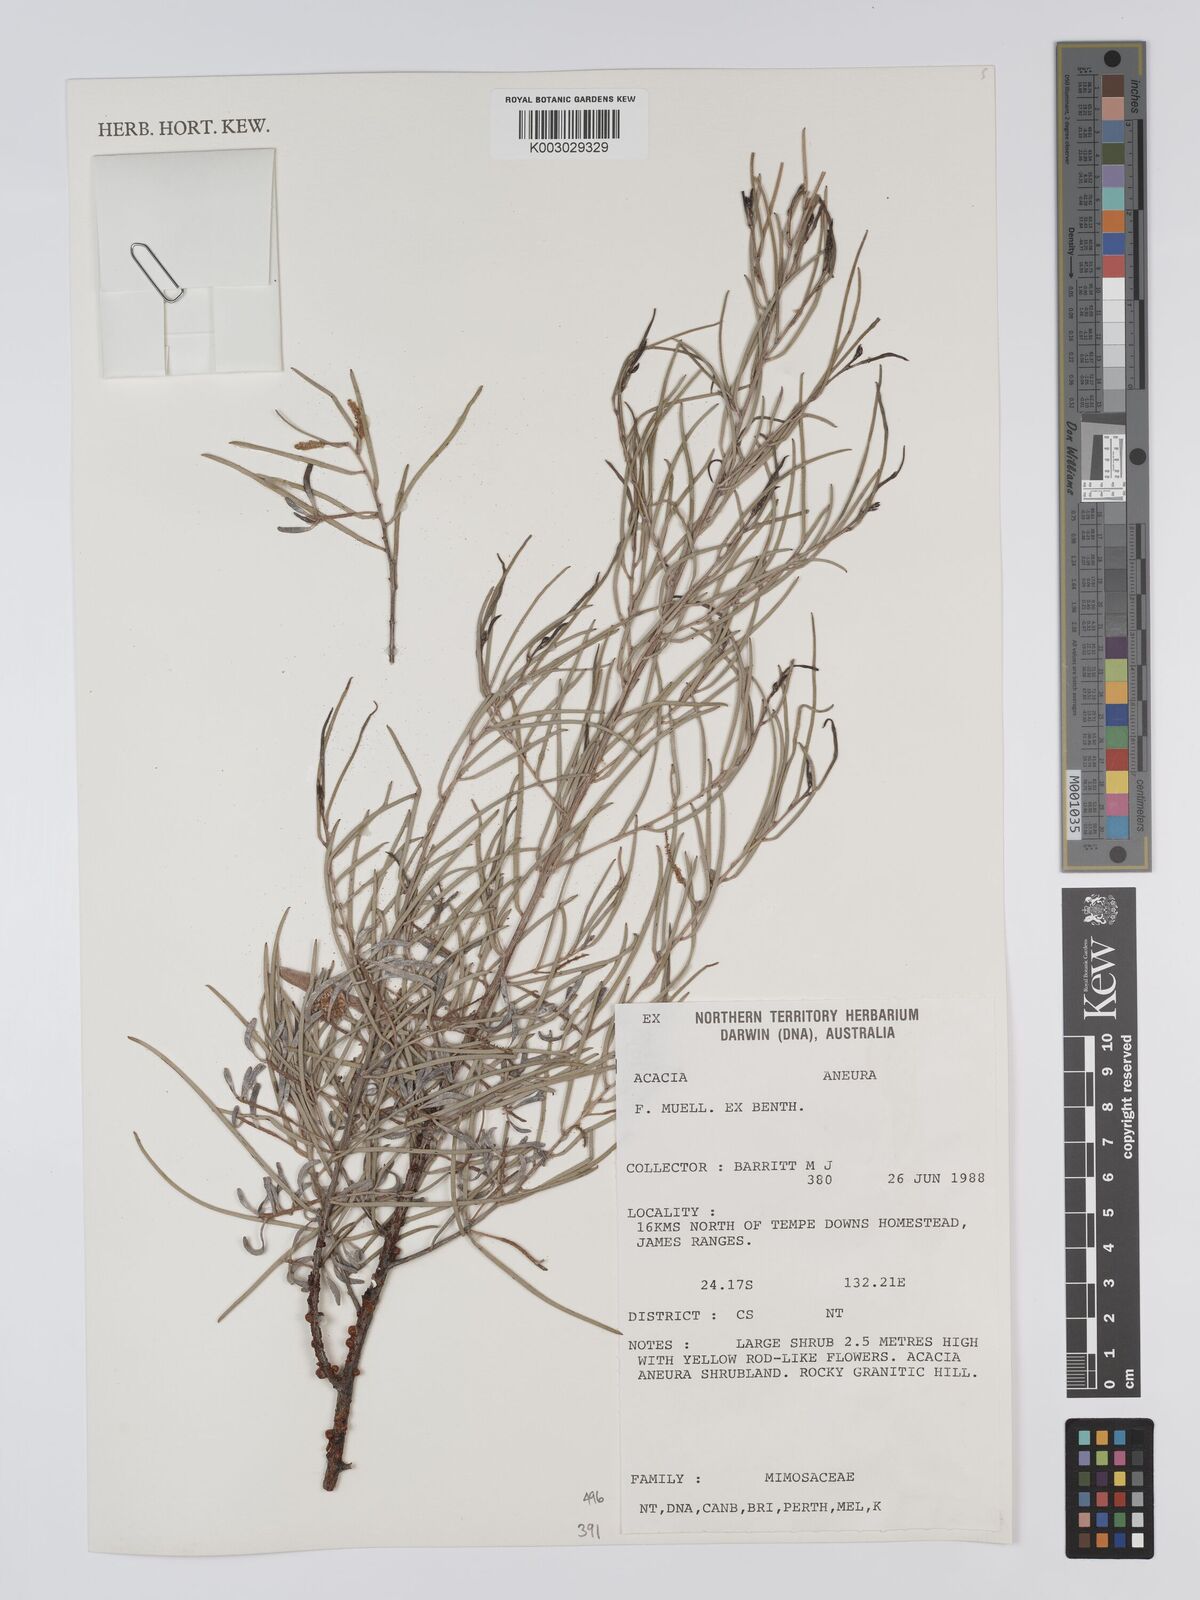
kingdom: Plantae
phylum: Tracheophyta
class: Magnoliopsida
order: Fabales
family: Fabaceae
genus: Acacia
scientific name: Acacia aneura
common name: Mulga
